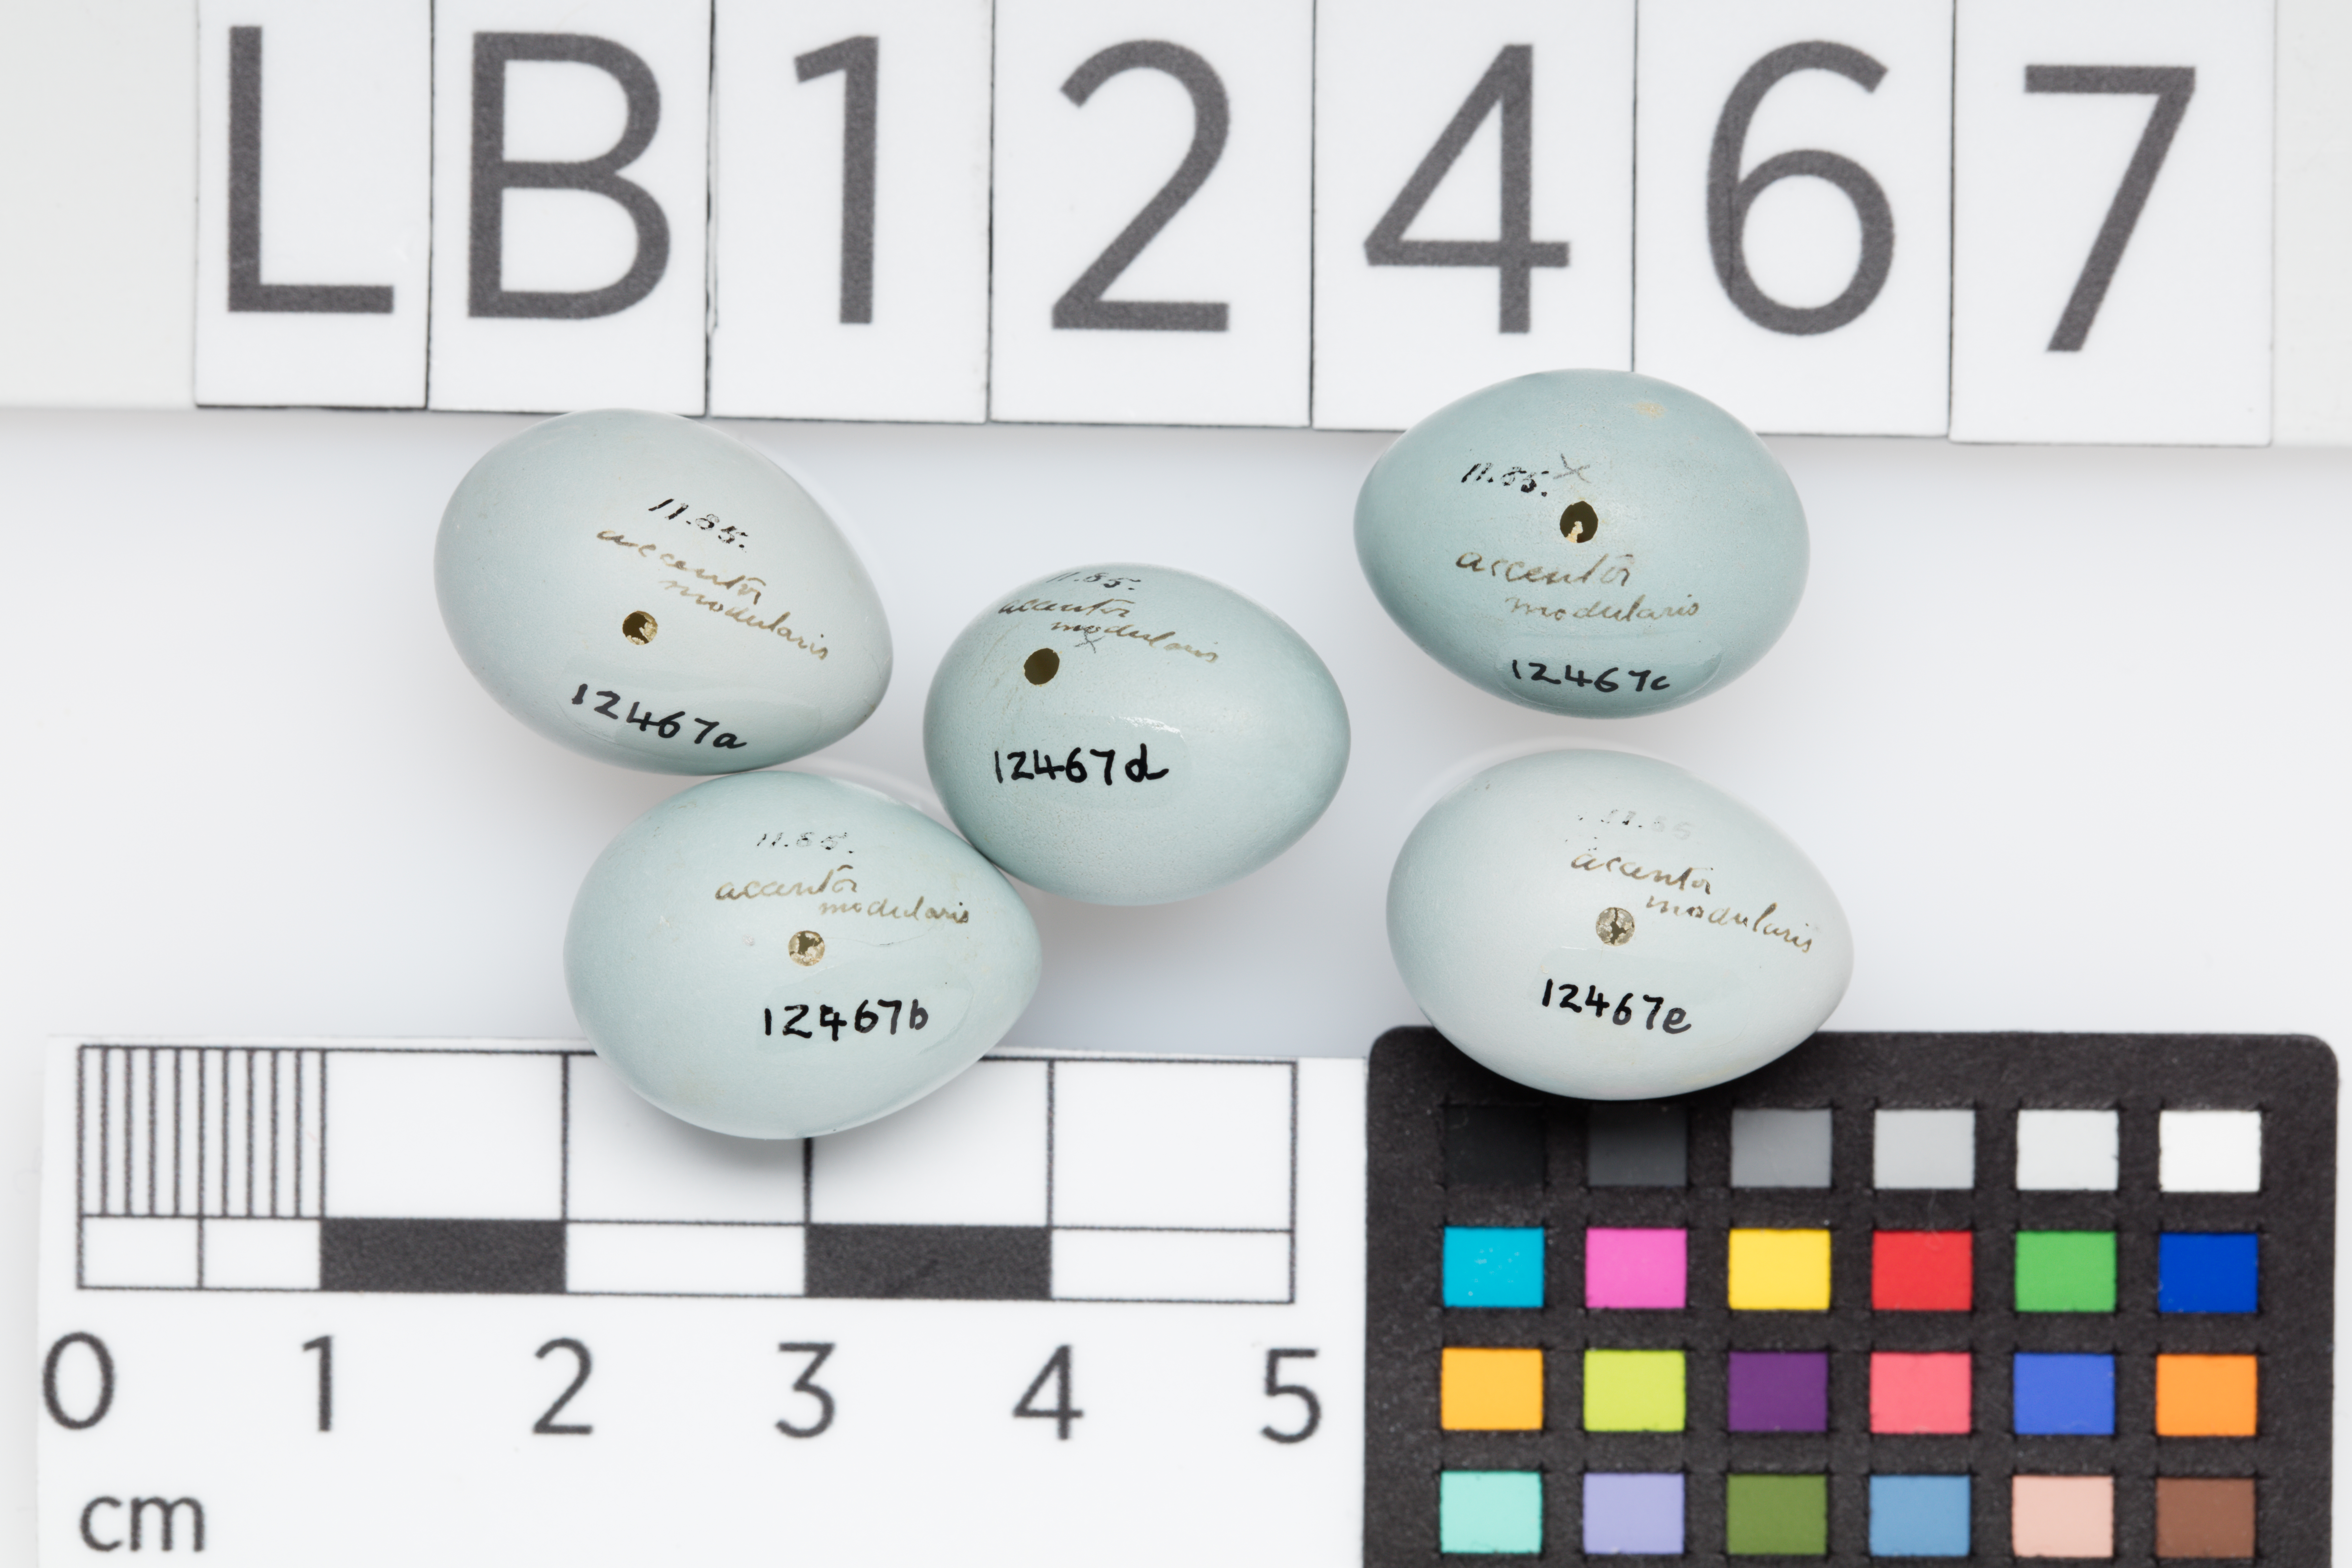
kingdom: Animalia
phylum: Chordata
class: Aves
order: Passeriformes
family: Prunellidae
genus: Prunella
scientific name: Prunella modularis
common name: Dunnock
